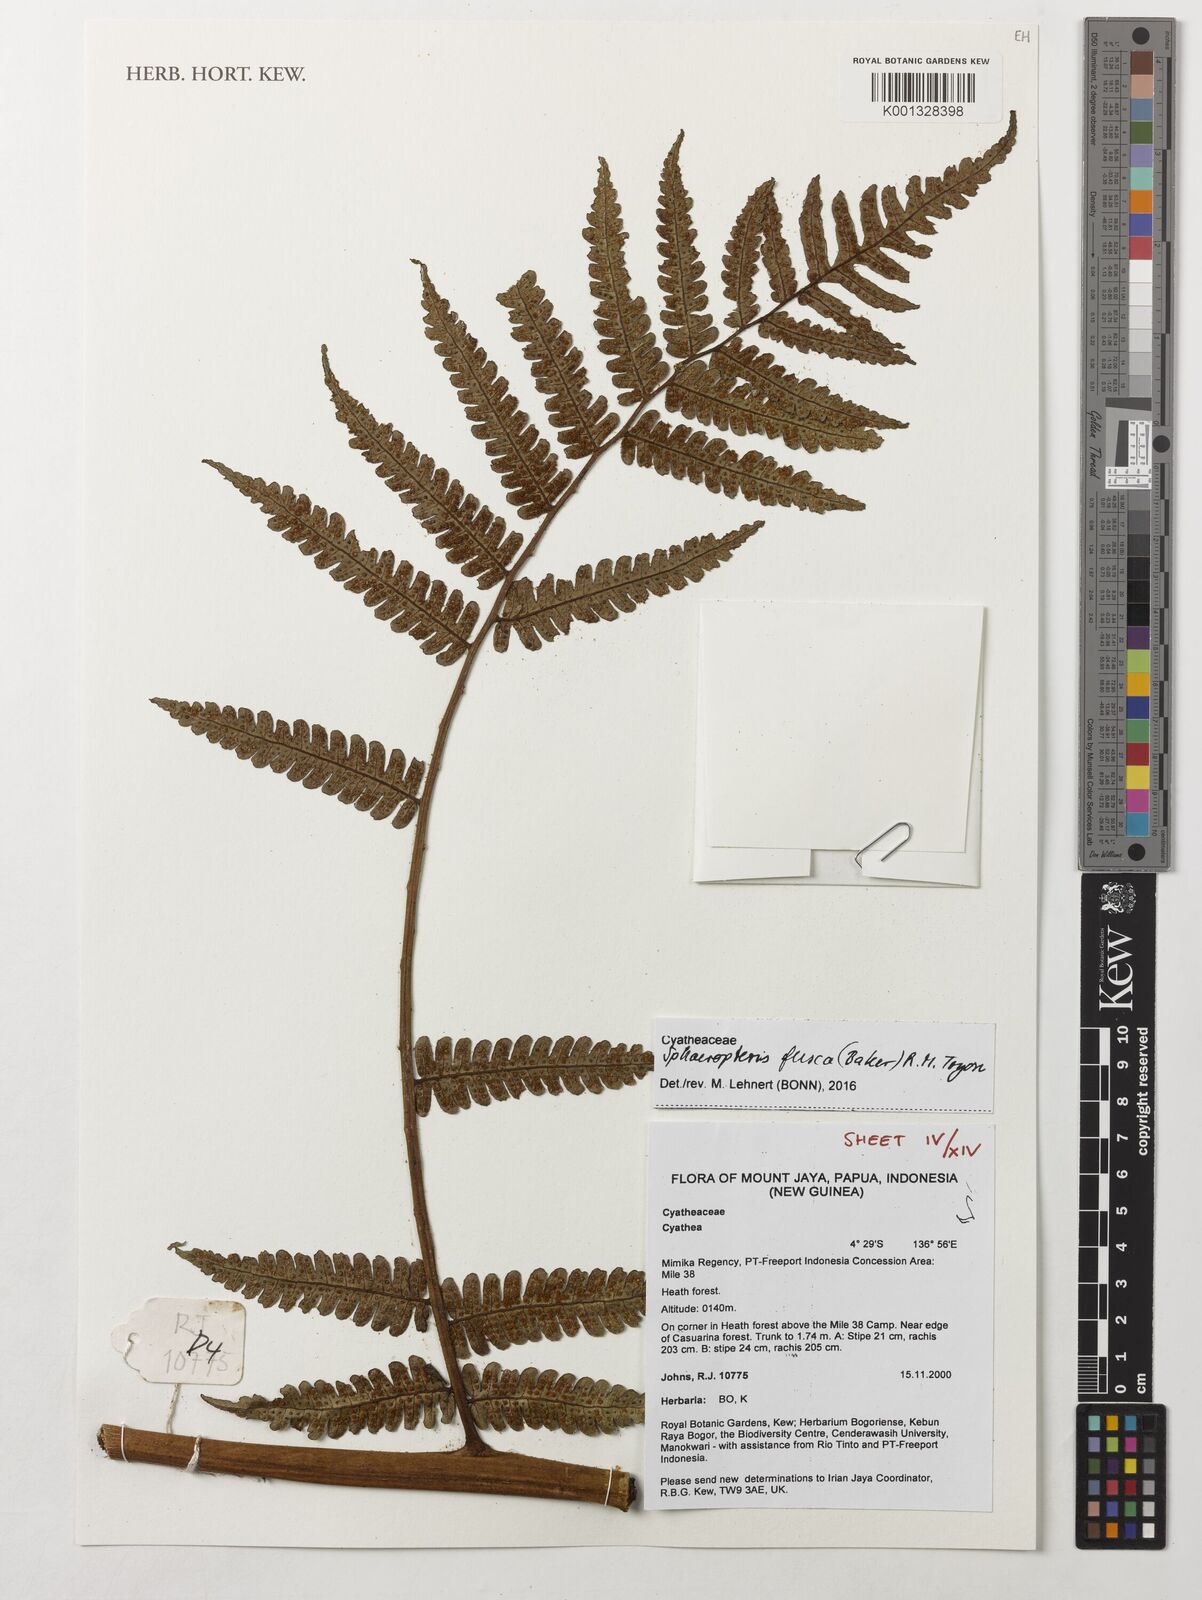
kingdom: Plantae
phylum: Tracheophyta
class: Polypodiopsida
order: Cyatheales
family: Cyatheaceae
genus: Sphaeropteris
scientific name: Sphaeropteris fusca
